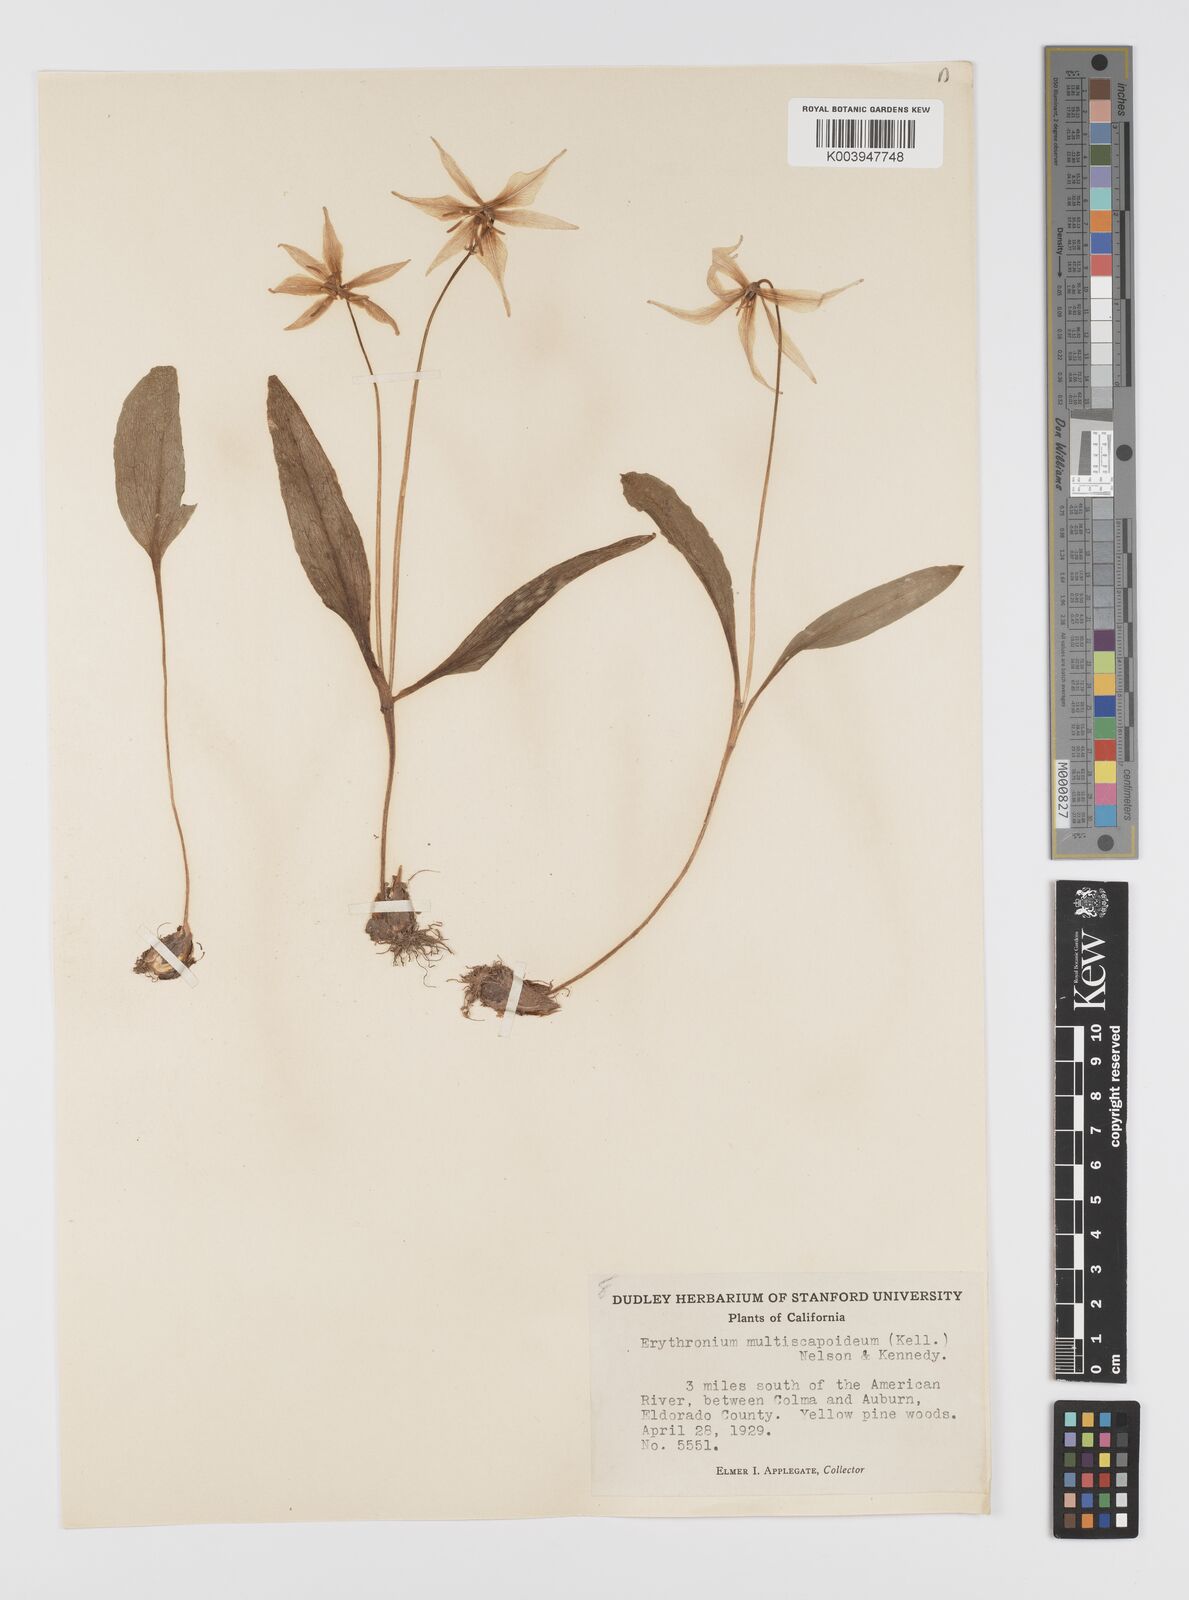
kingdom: Plantae
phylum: Tracheophyta
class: Liliopsida
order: Liliales
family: Liliaceae
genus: Erythronium
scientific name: Erythronium multiscapideum
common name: Sierra foothills fawn-lily
